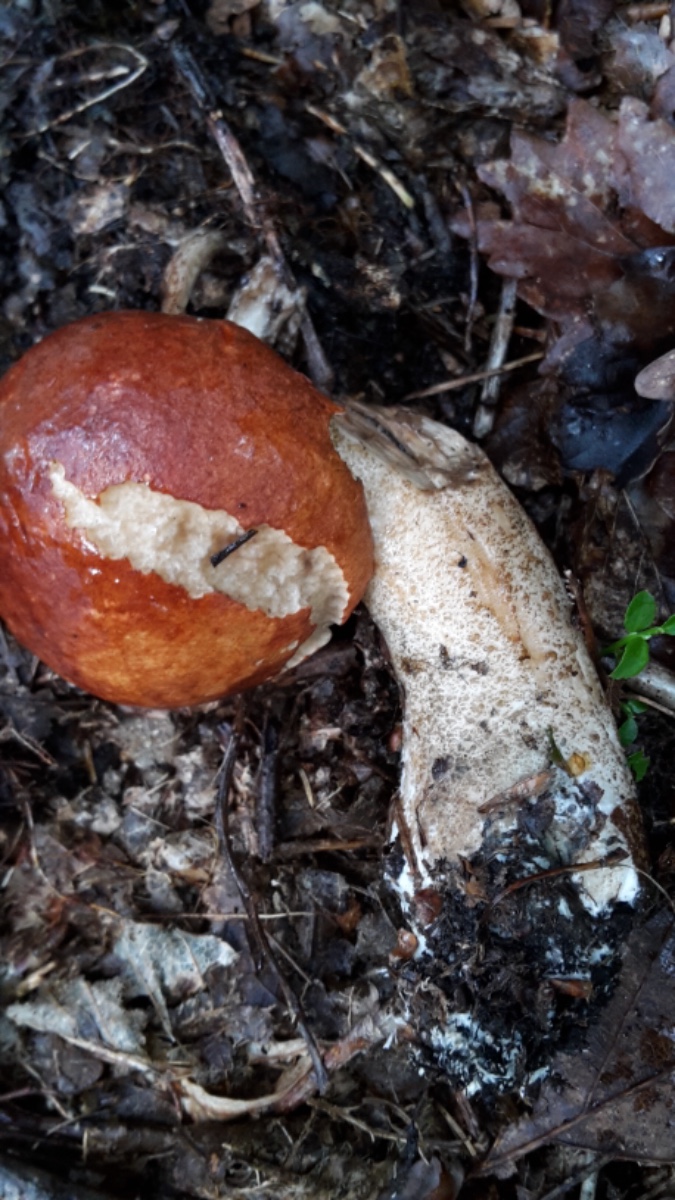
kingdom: Fungi
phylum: Basidiomycota
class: Agaricomycetes
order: Boletales
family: Boletaceae
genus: Leccinum
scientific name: Leccinum aurantiacum
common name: rustrød skælrørhat
